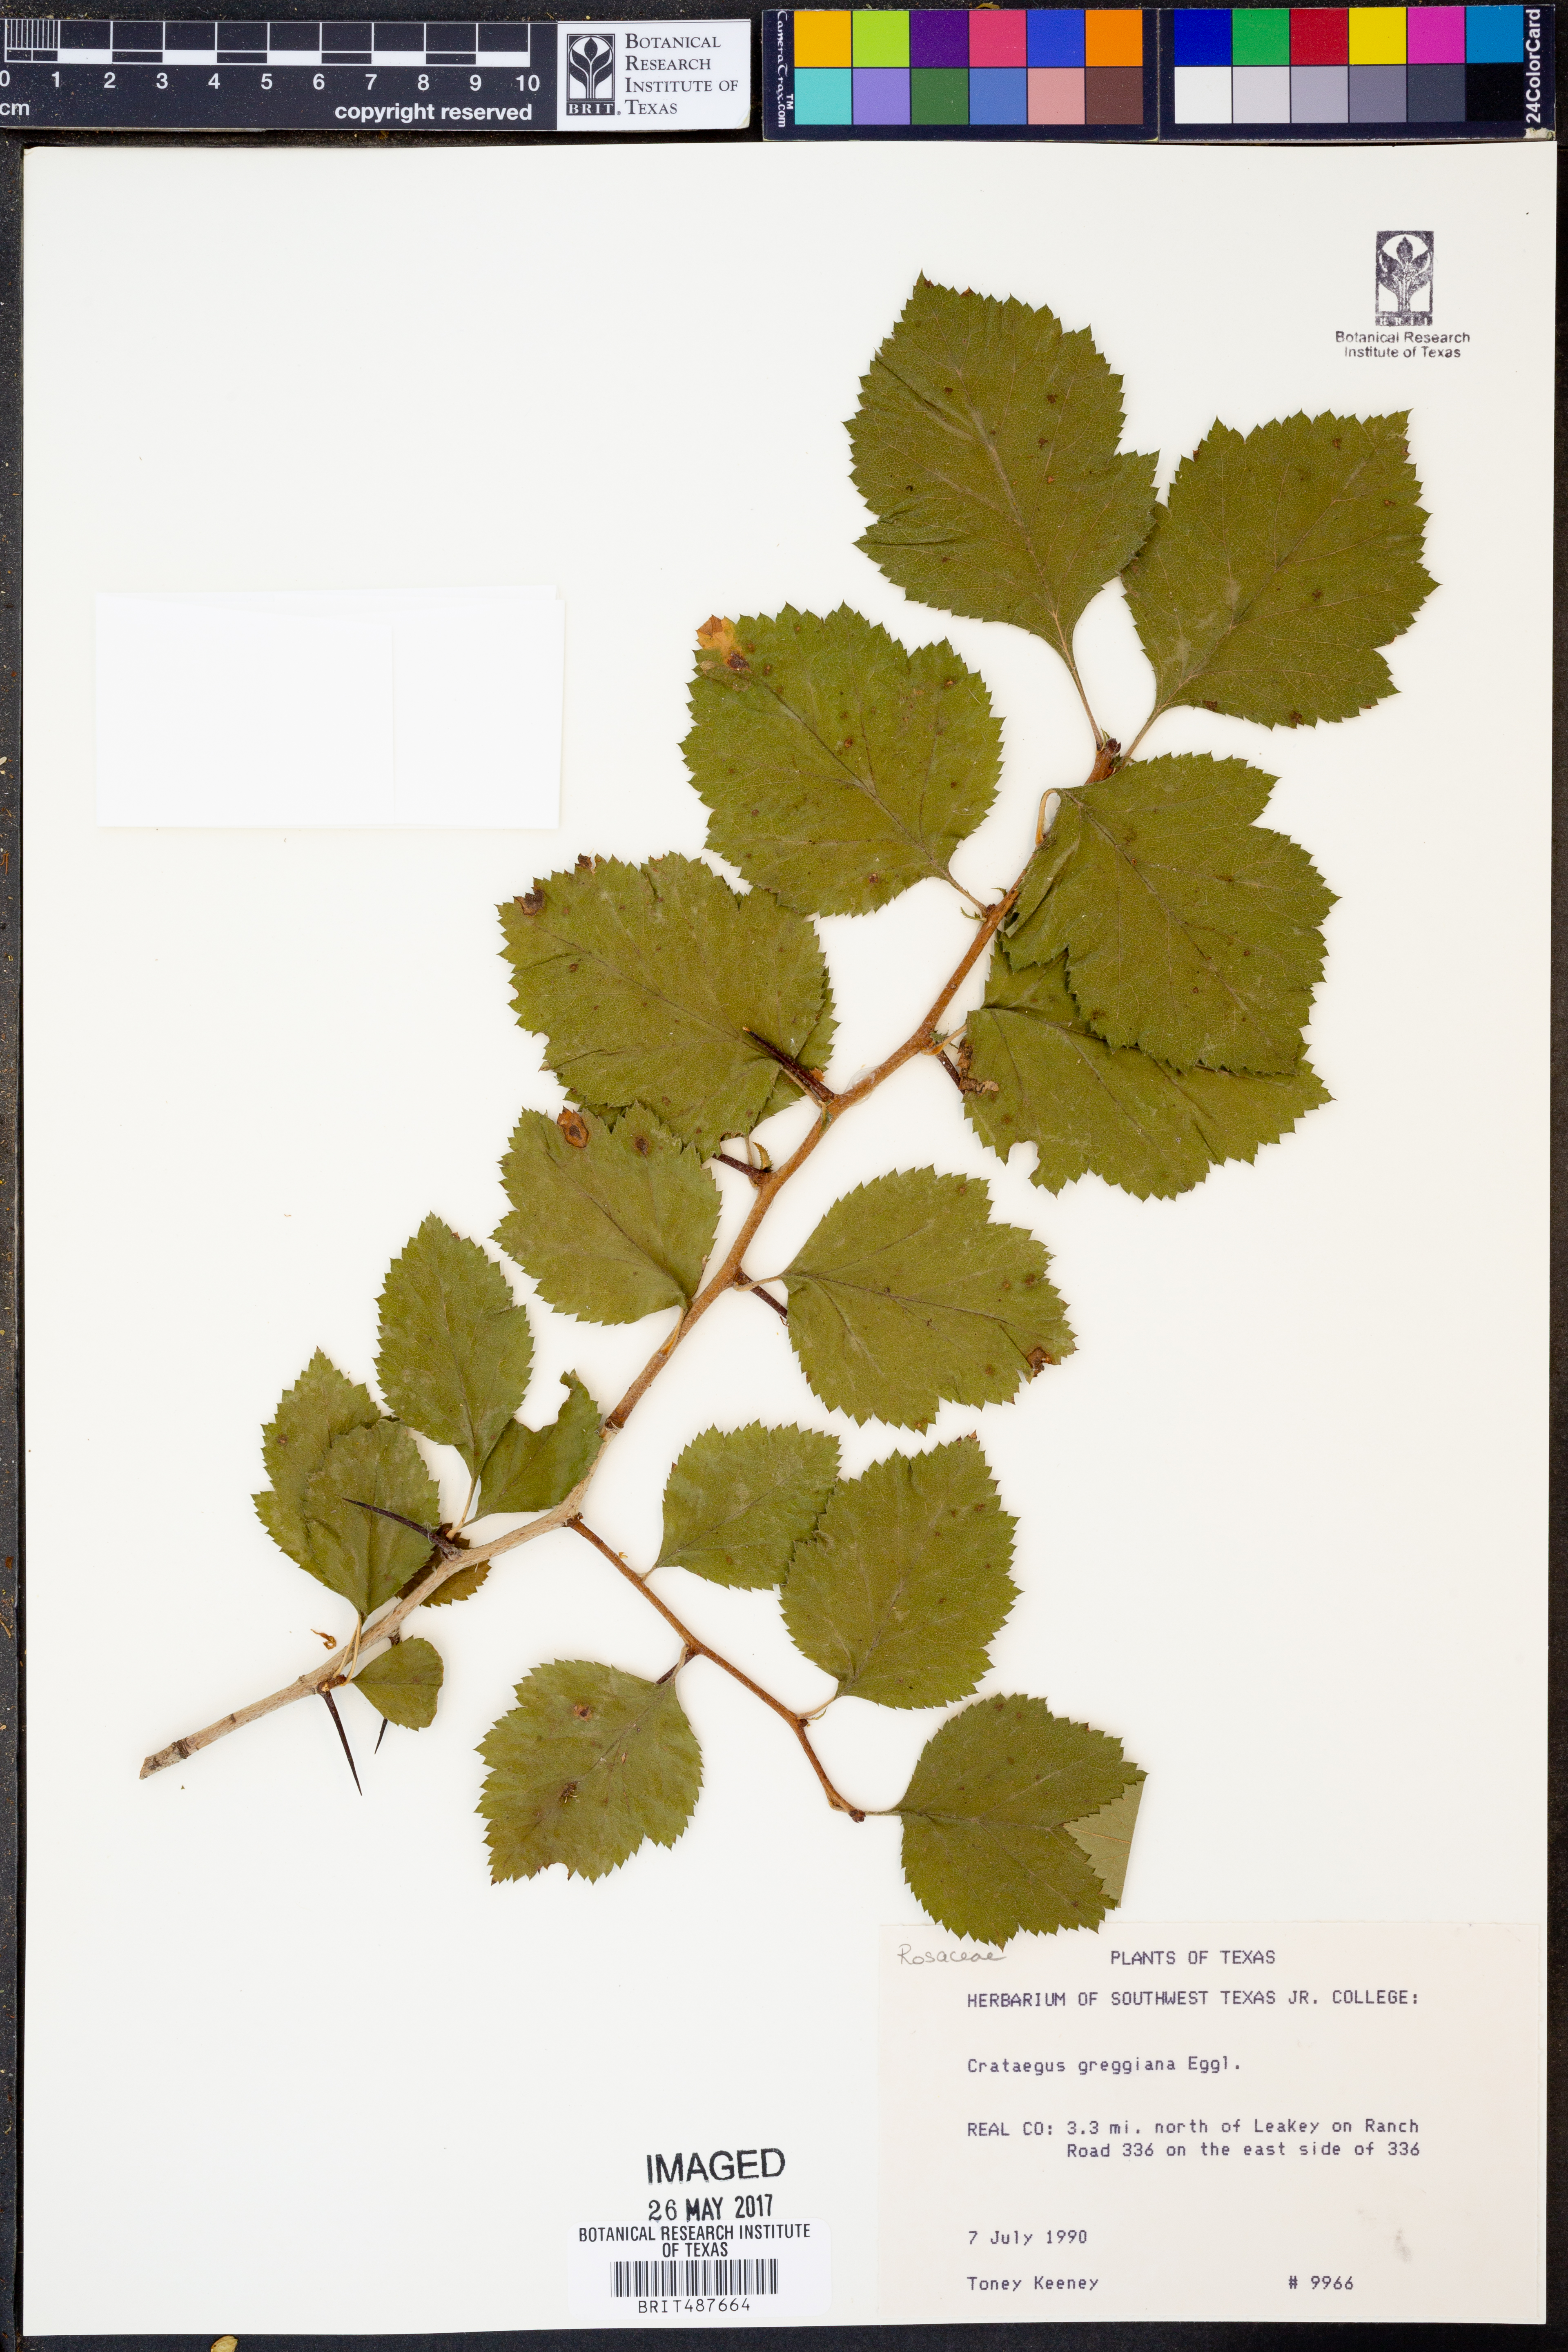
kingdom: Plantae
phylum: Tracheophyta
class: Magnoliopsida
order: Rosales
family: Rosaceae
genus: Crataegus
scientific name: Crataegus greggiana
